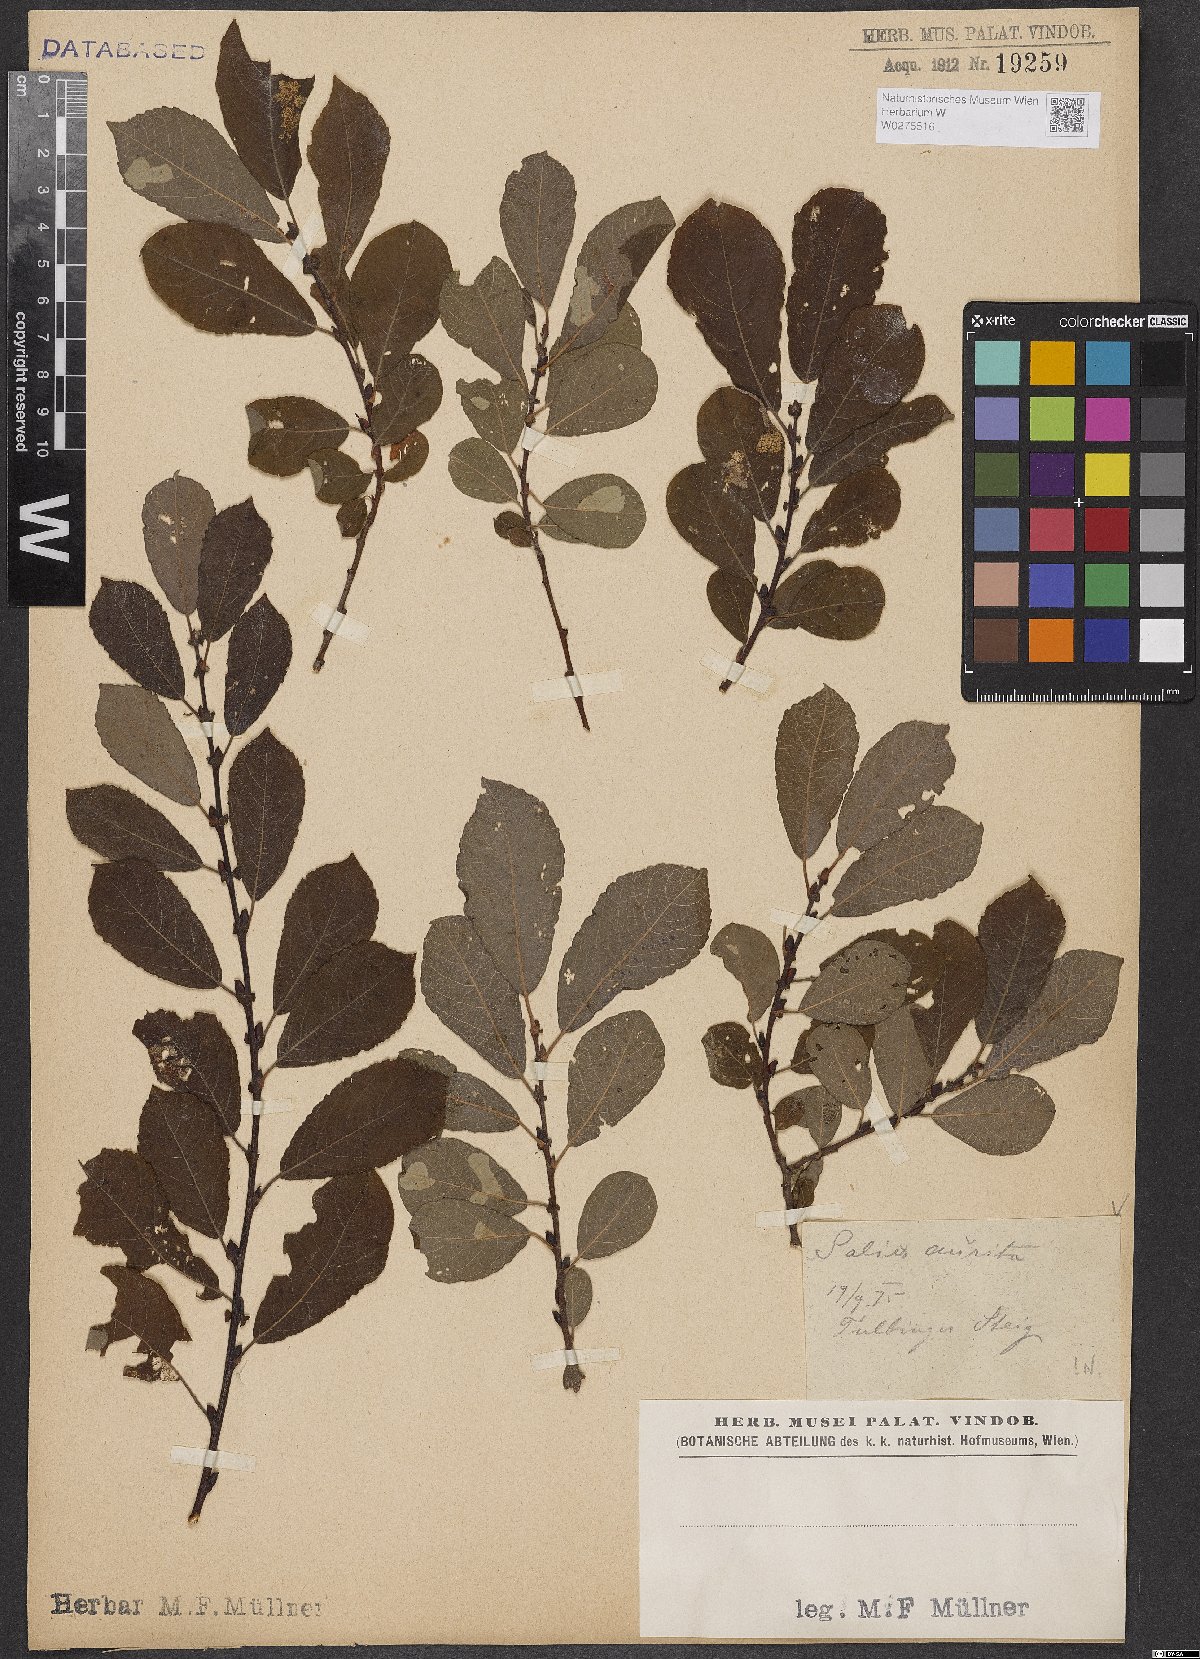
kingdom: Plantae
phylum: Tracheophyta
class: Magnoliopsida
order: Malpighiales
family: Salicaceae
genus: Salix
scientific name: Salix aurita
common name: Eared willow
